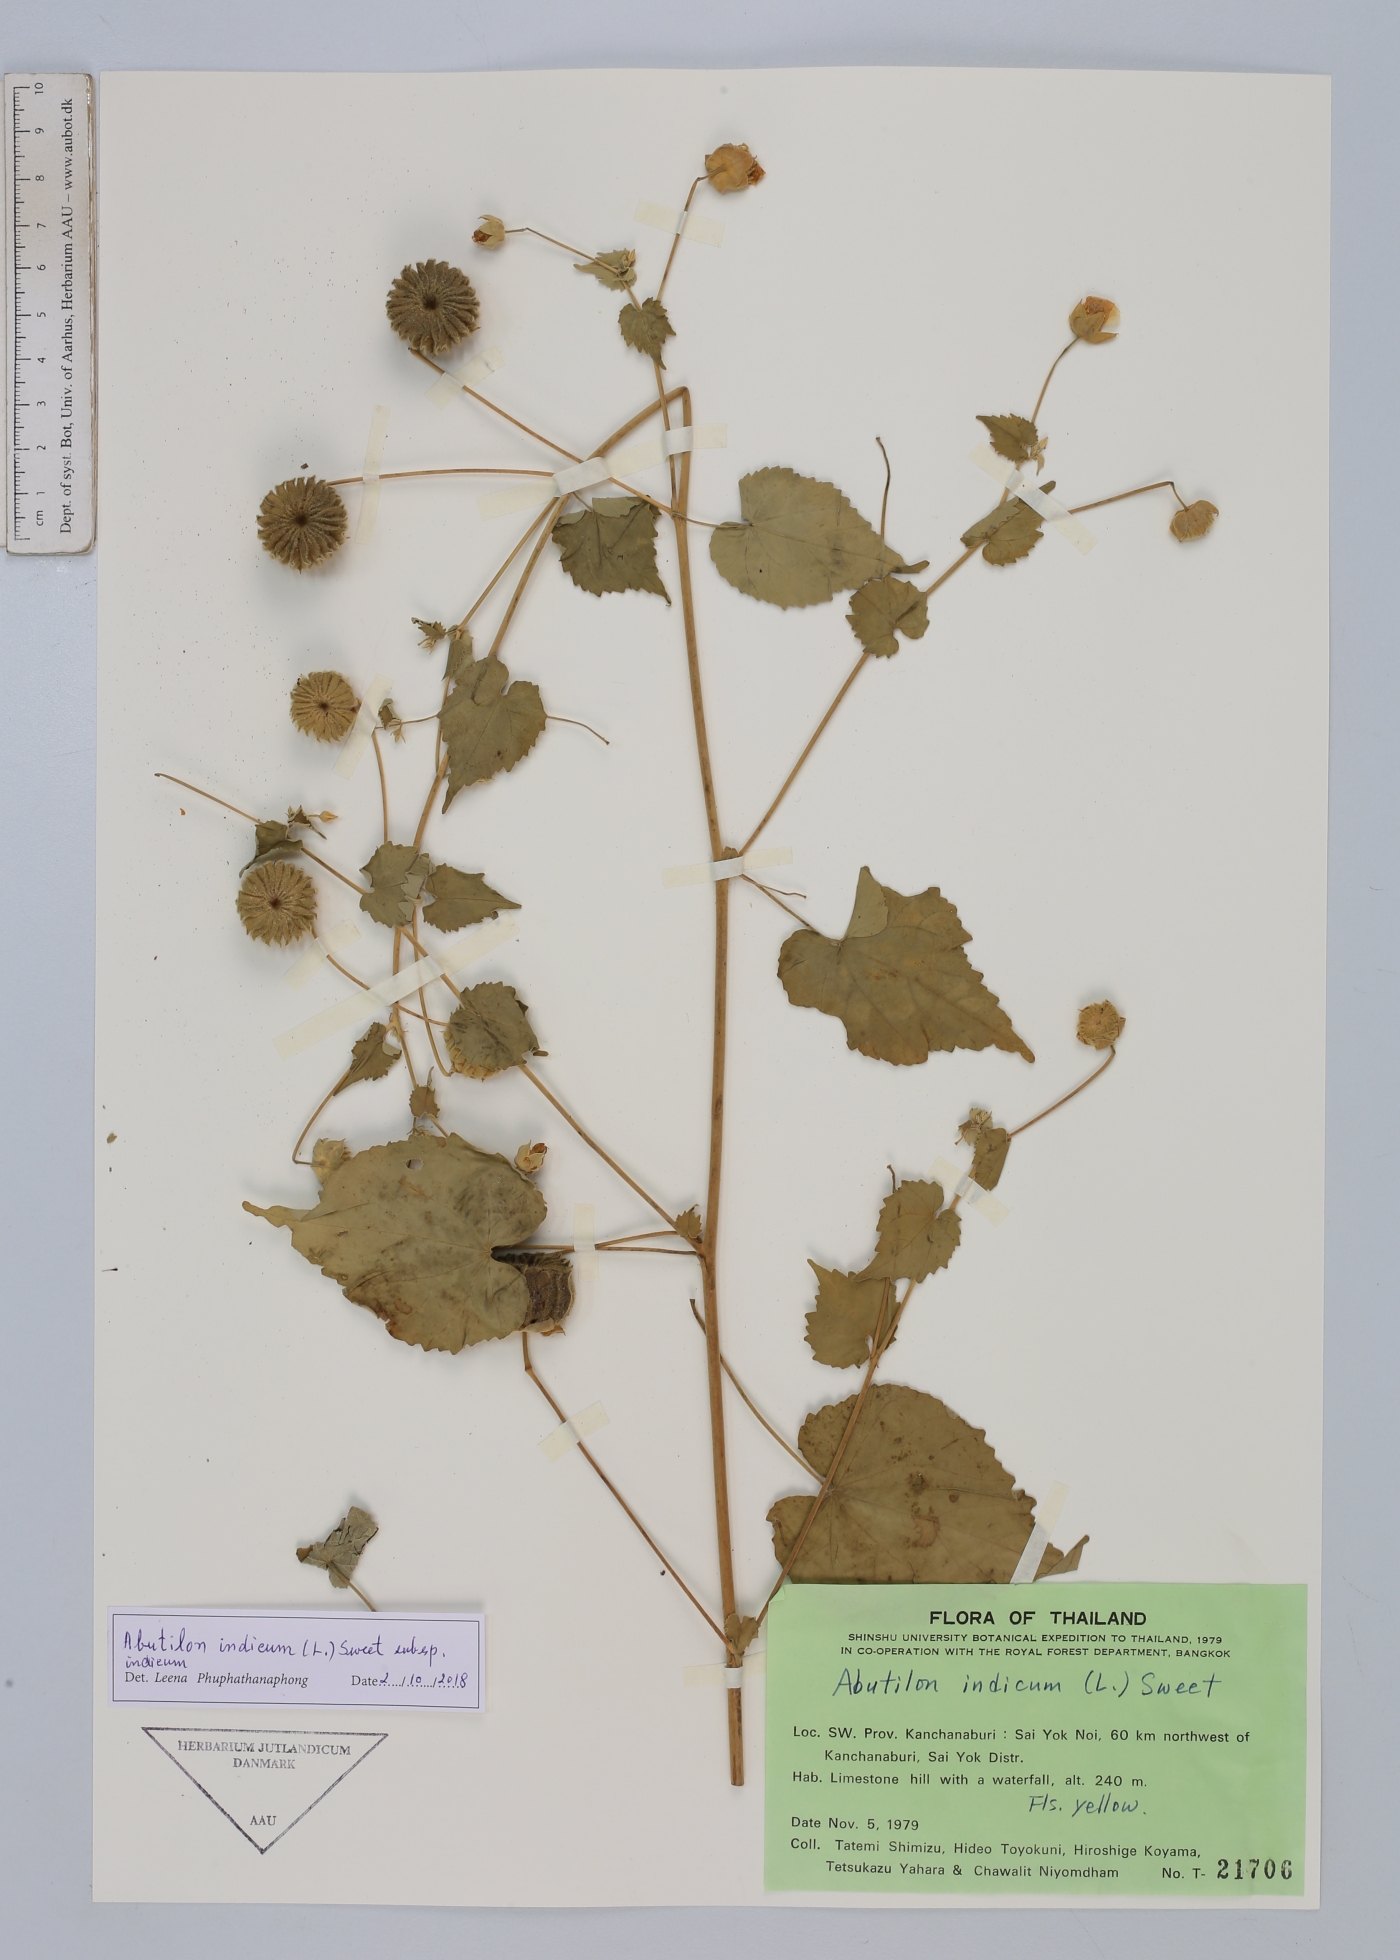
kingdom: Plantae
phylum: Tracheophyta
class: Magnoliopsida
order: Malvales
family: Malvaceae
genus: Abutilon
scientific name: Abutilon indicum
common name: Indian abutilon
